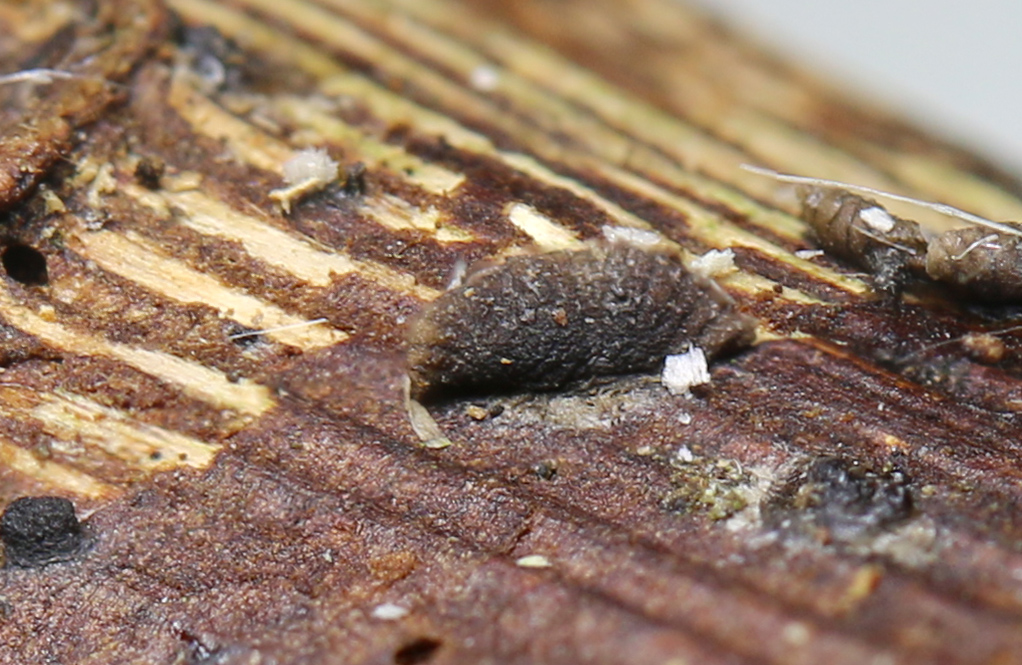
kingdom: Fungi
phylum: Basidiomycota
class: Agaricomycetes
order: Agaricales
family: Pleurotaceae
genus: Resupinatus
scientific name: Resupinatus trichotis
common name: mørkfiltet barkhat
